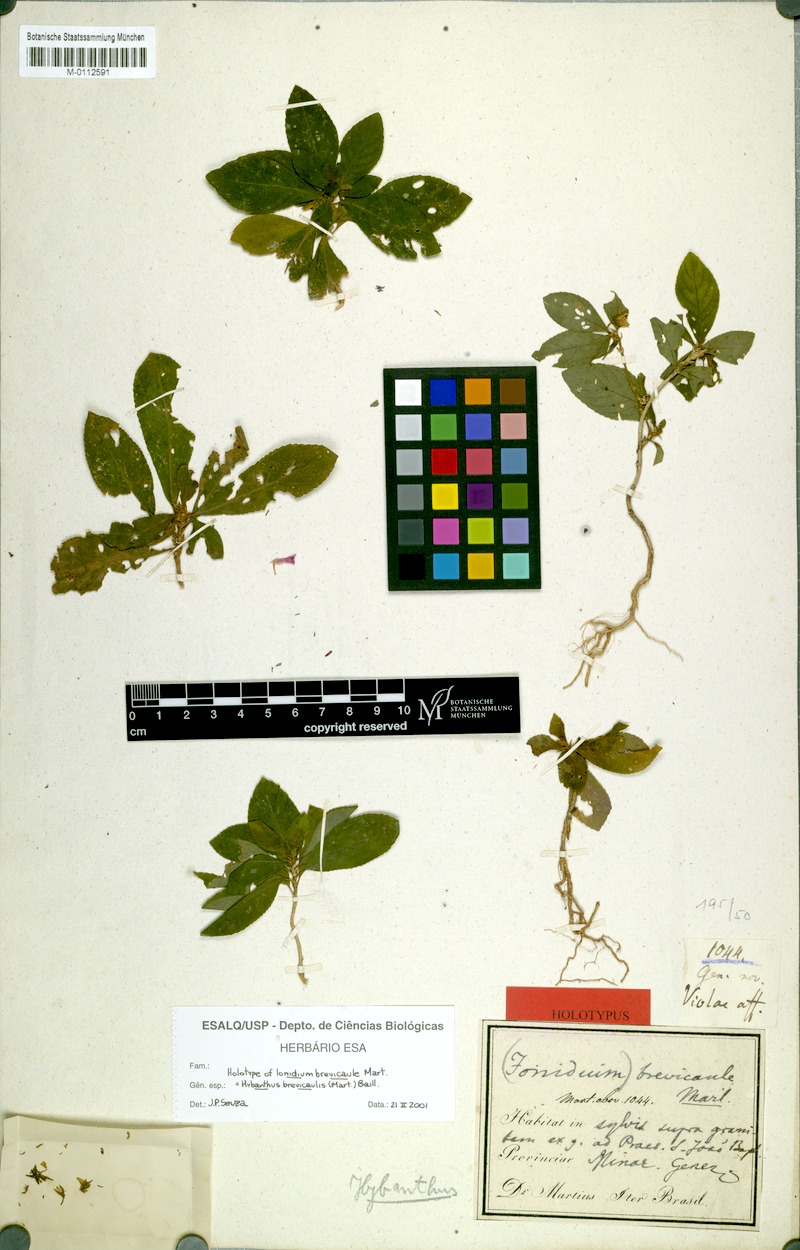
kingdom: Plantae
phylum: Tracheophyta
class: Magnoliopsida
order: Malpighiales
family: Violaceae
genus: Pombalia
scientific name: Pombalia brevicaulis
